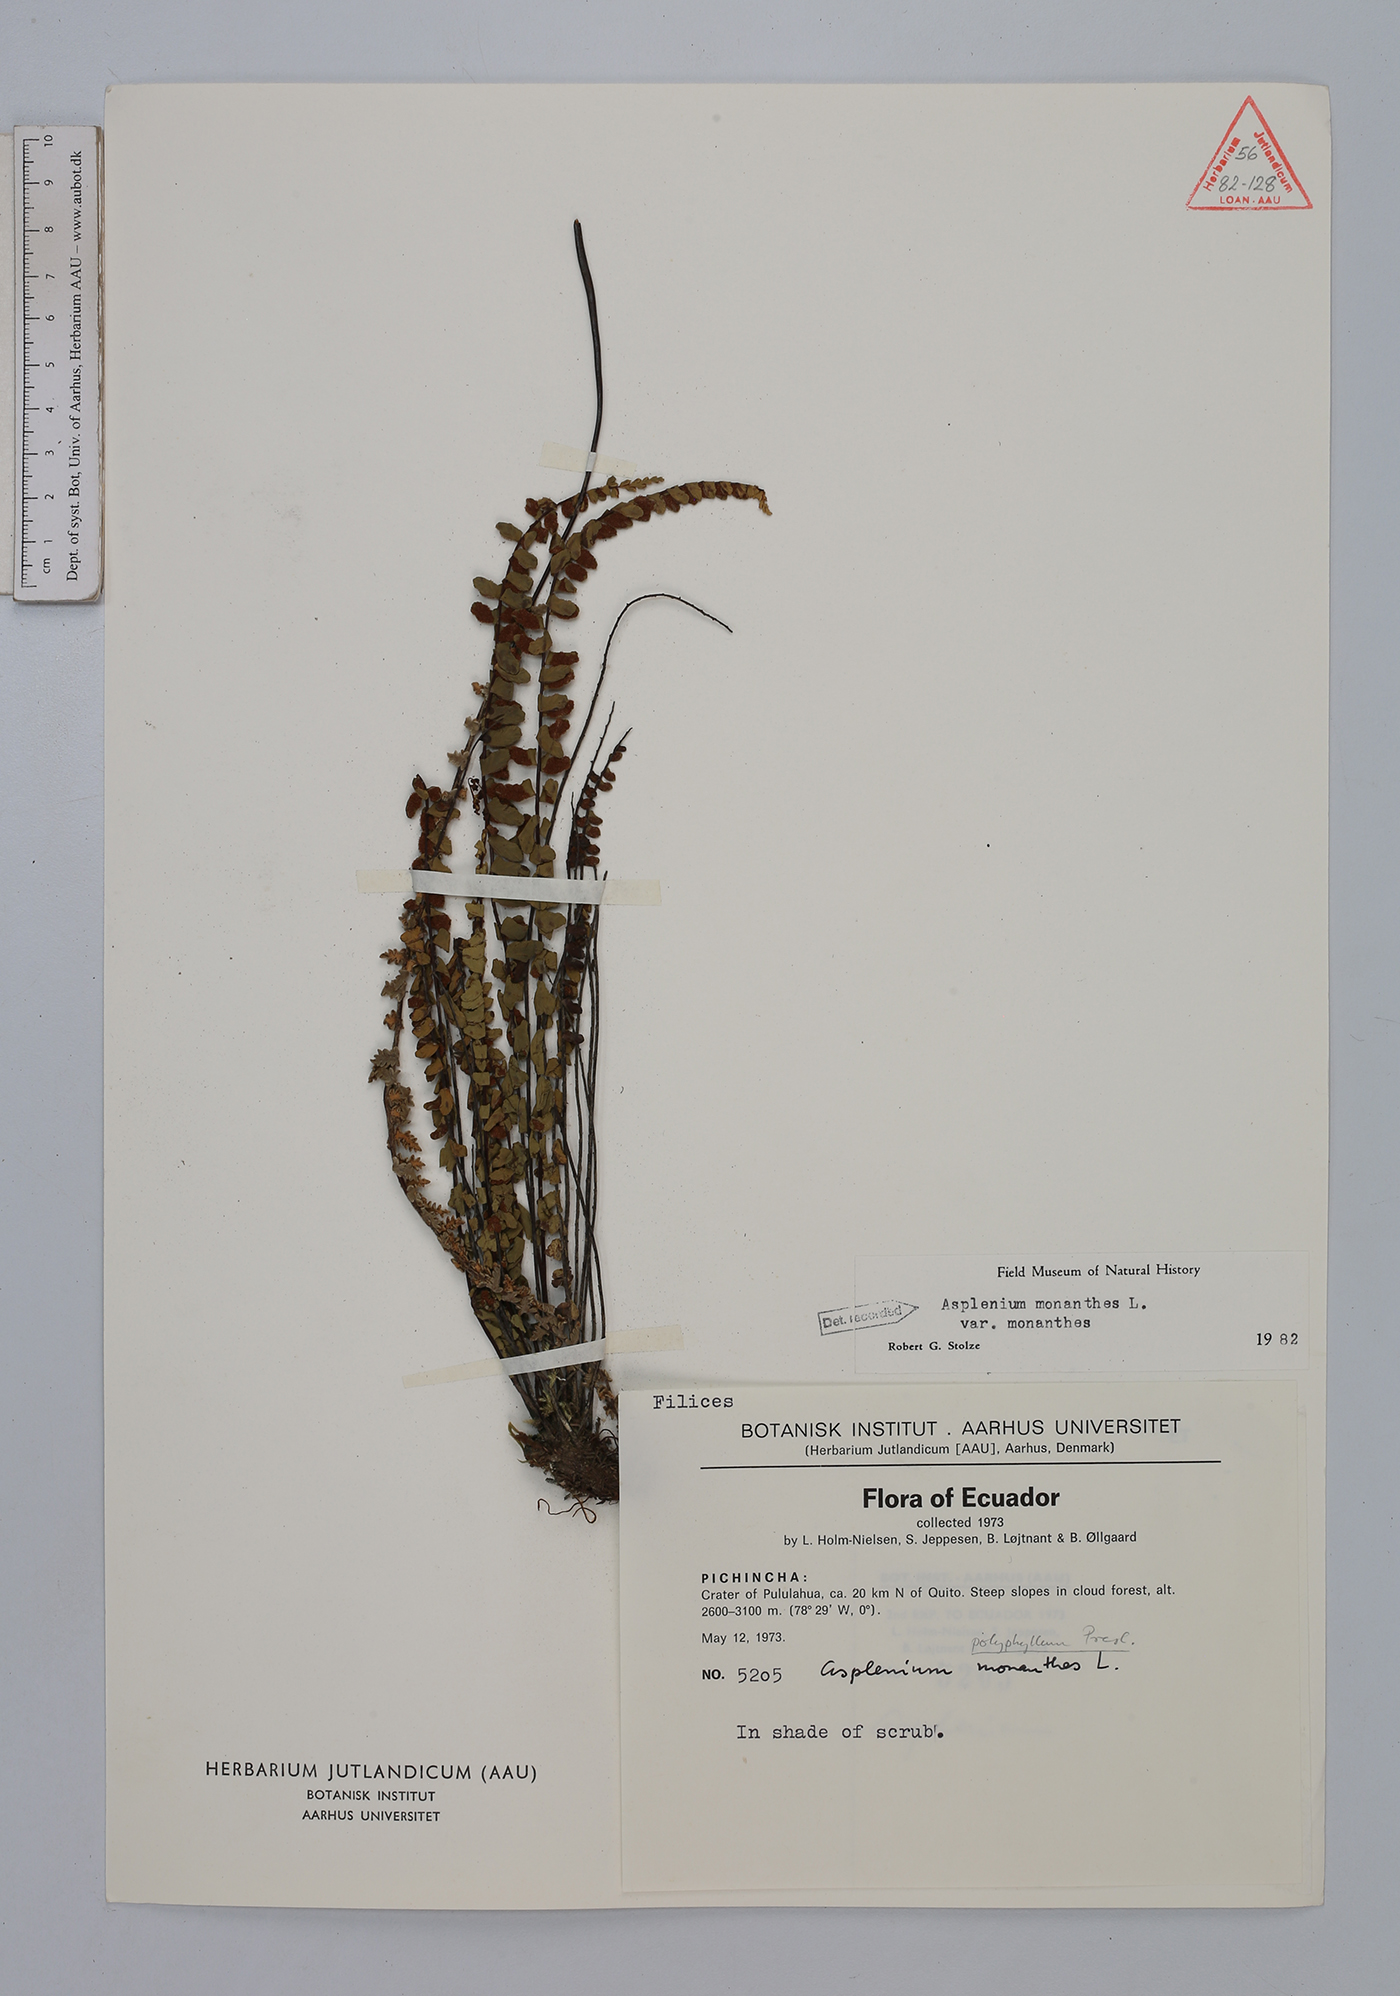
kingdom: Plantae
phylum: Tracheophyta
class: Polypodiopsida
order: Polypodiales
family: Aspleniaceae
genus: Asplenium
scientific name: Asplenium monanthes
